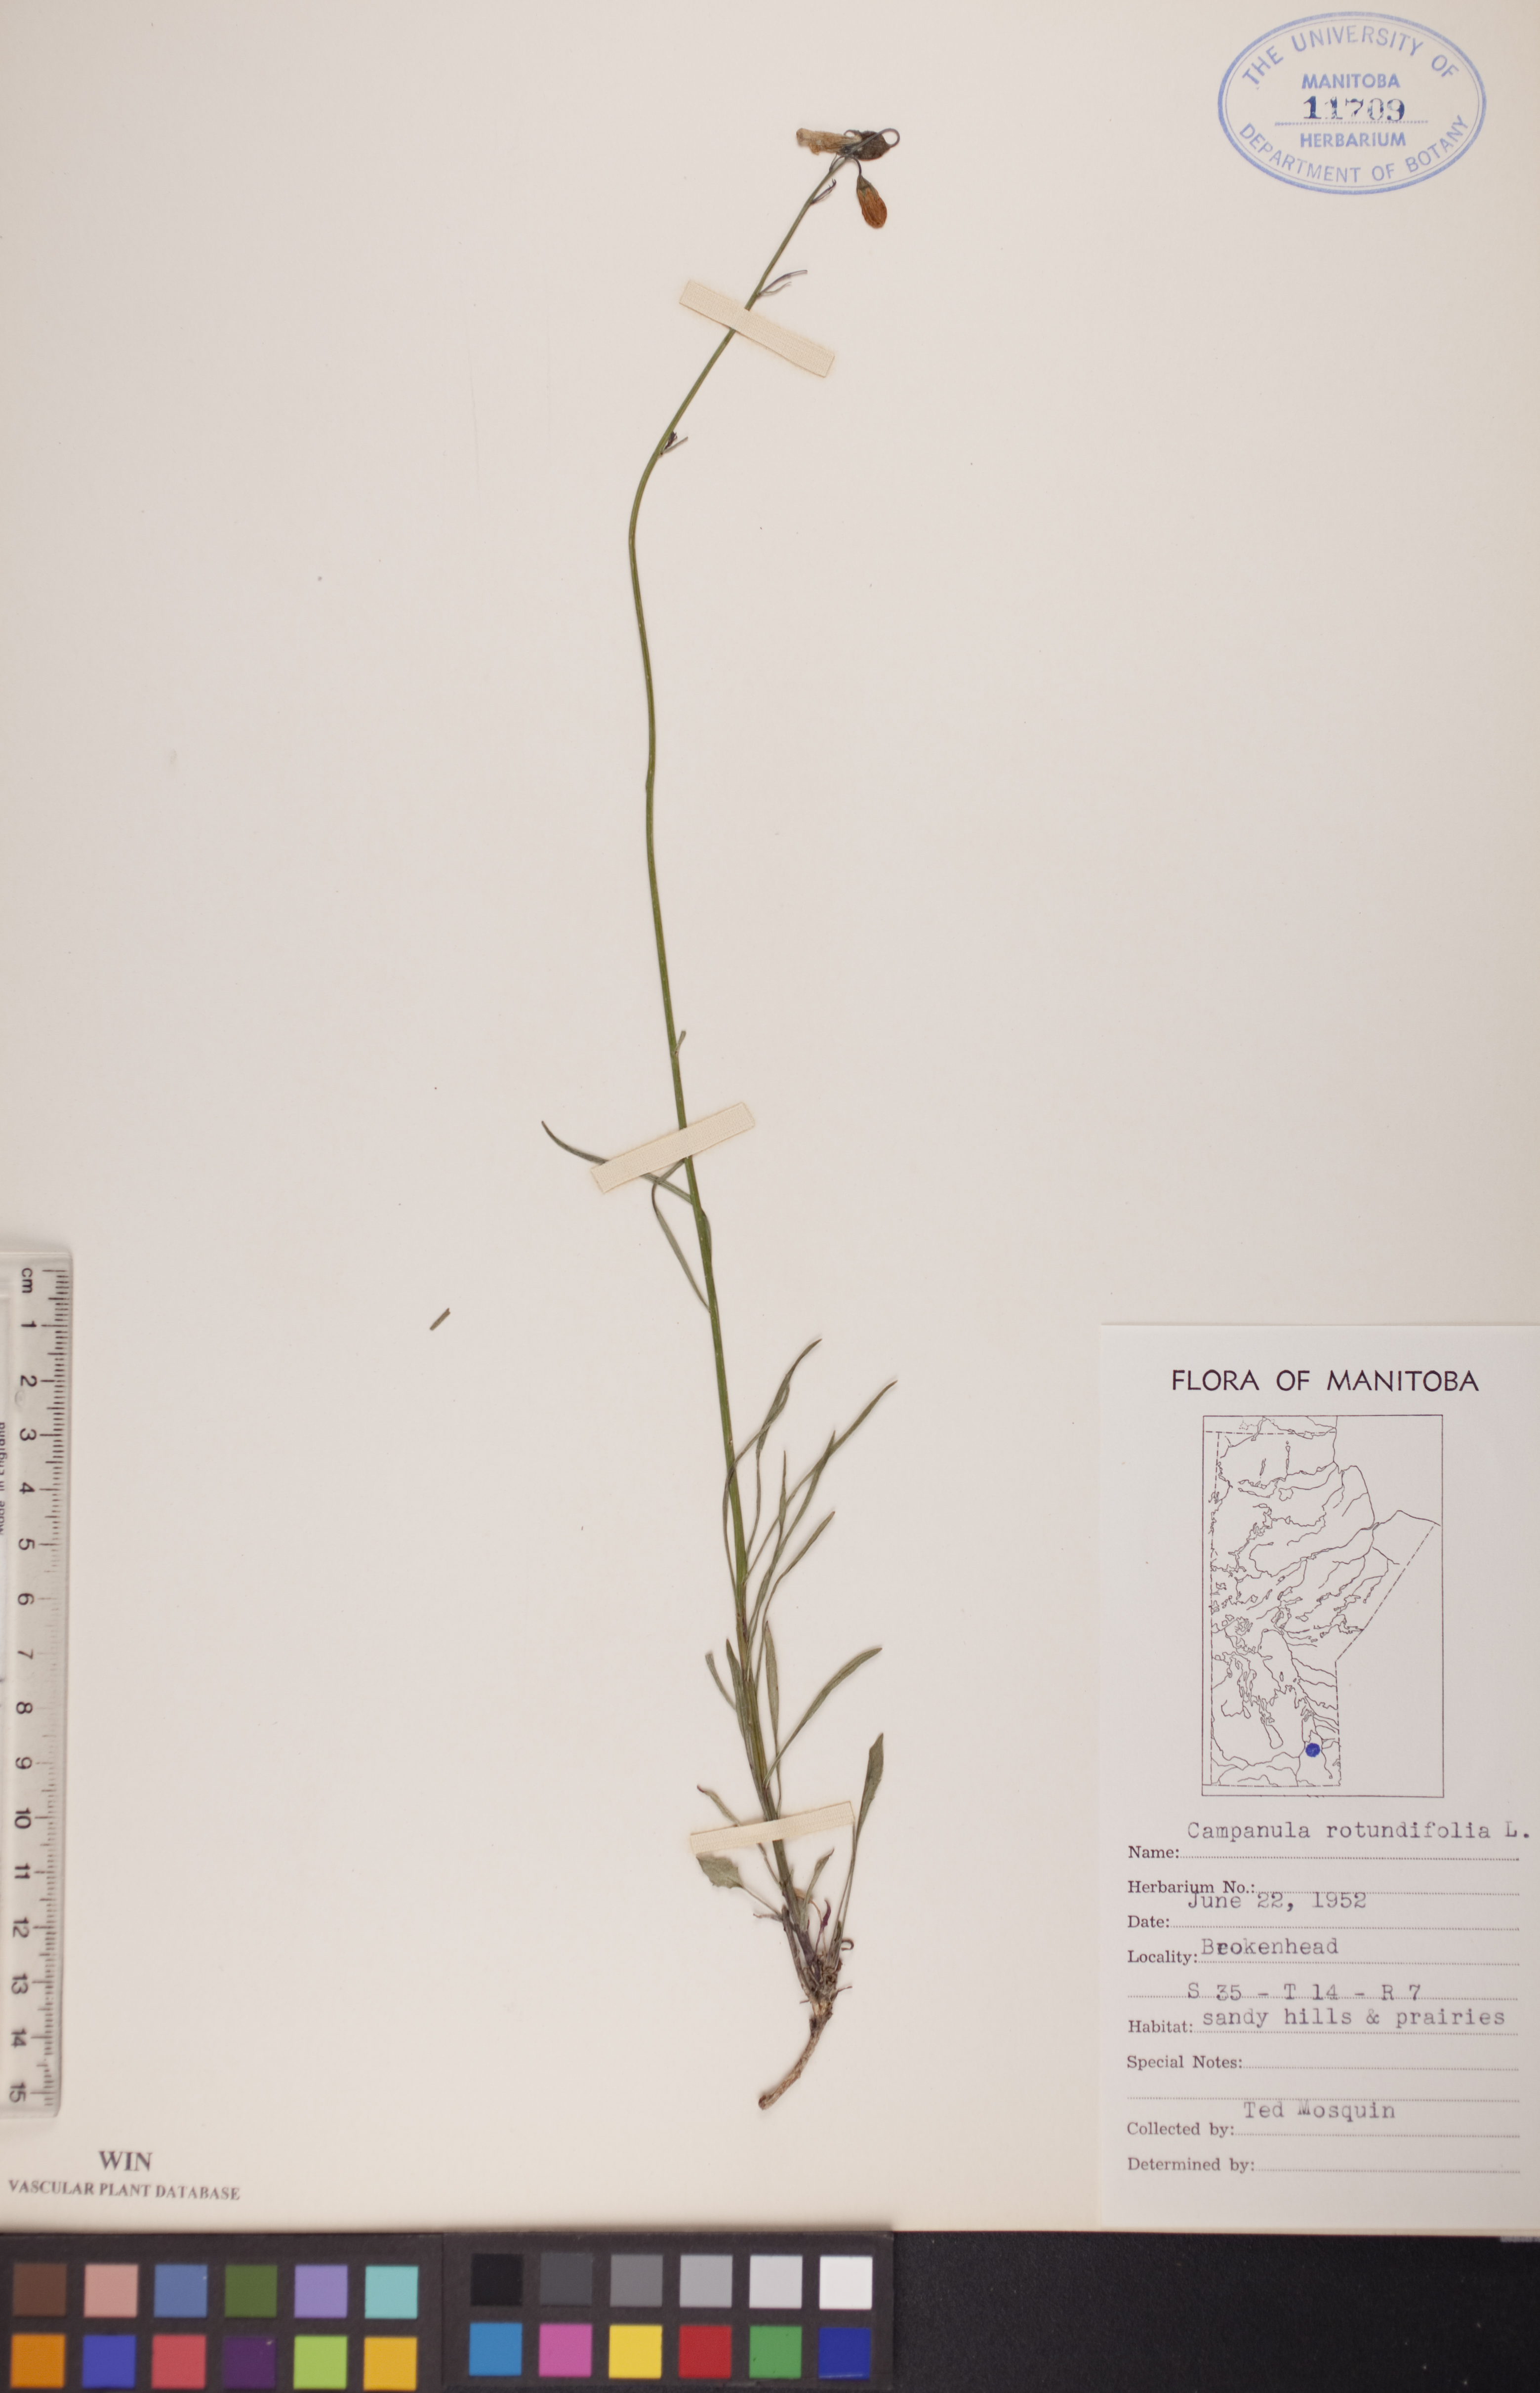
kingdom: Plantae
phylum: Tracheophyta
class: Magnoliopsida
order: Asterales
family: Campanulaceae
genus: Campanula
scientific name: Campanula rotundifolia
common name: Harebell
